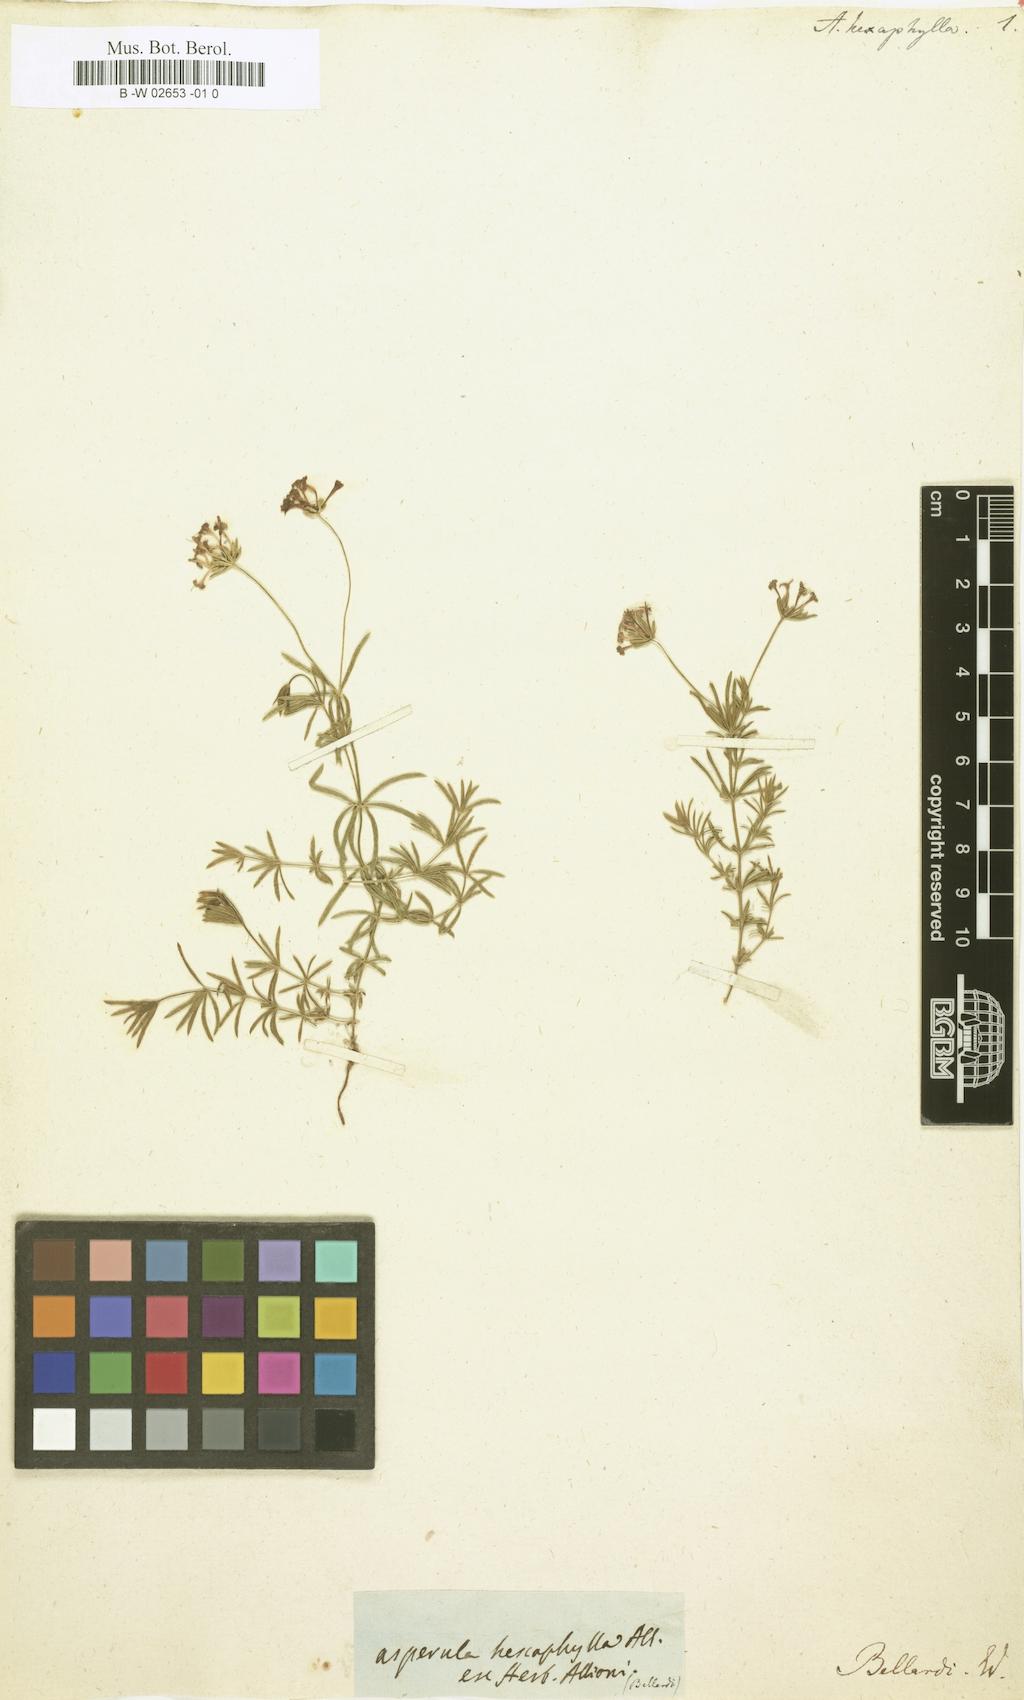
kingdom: Plantae
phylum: Tracheophyta
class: Magnoliopsida
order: Gentianales
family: Rubiaceae
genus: Hexaphylla
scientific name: Hexaphylla allionii
